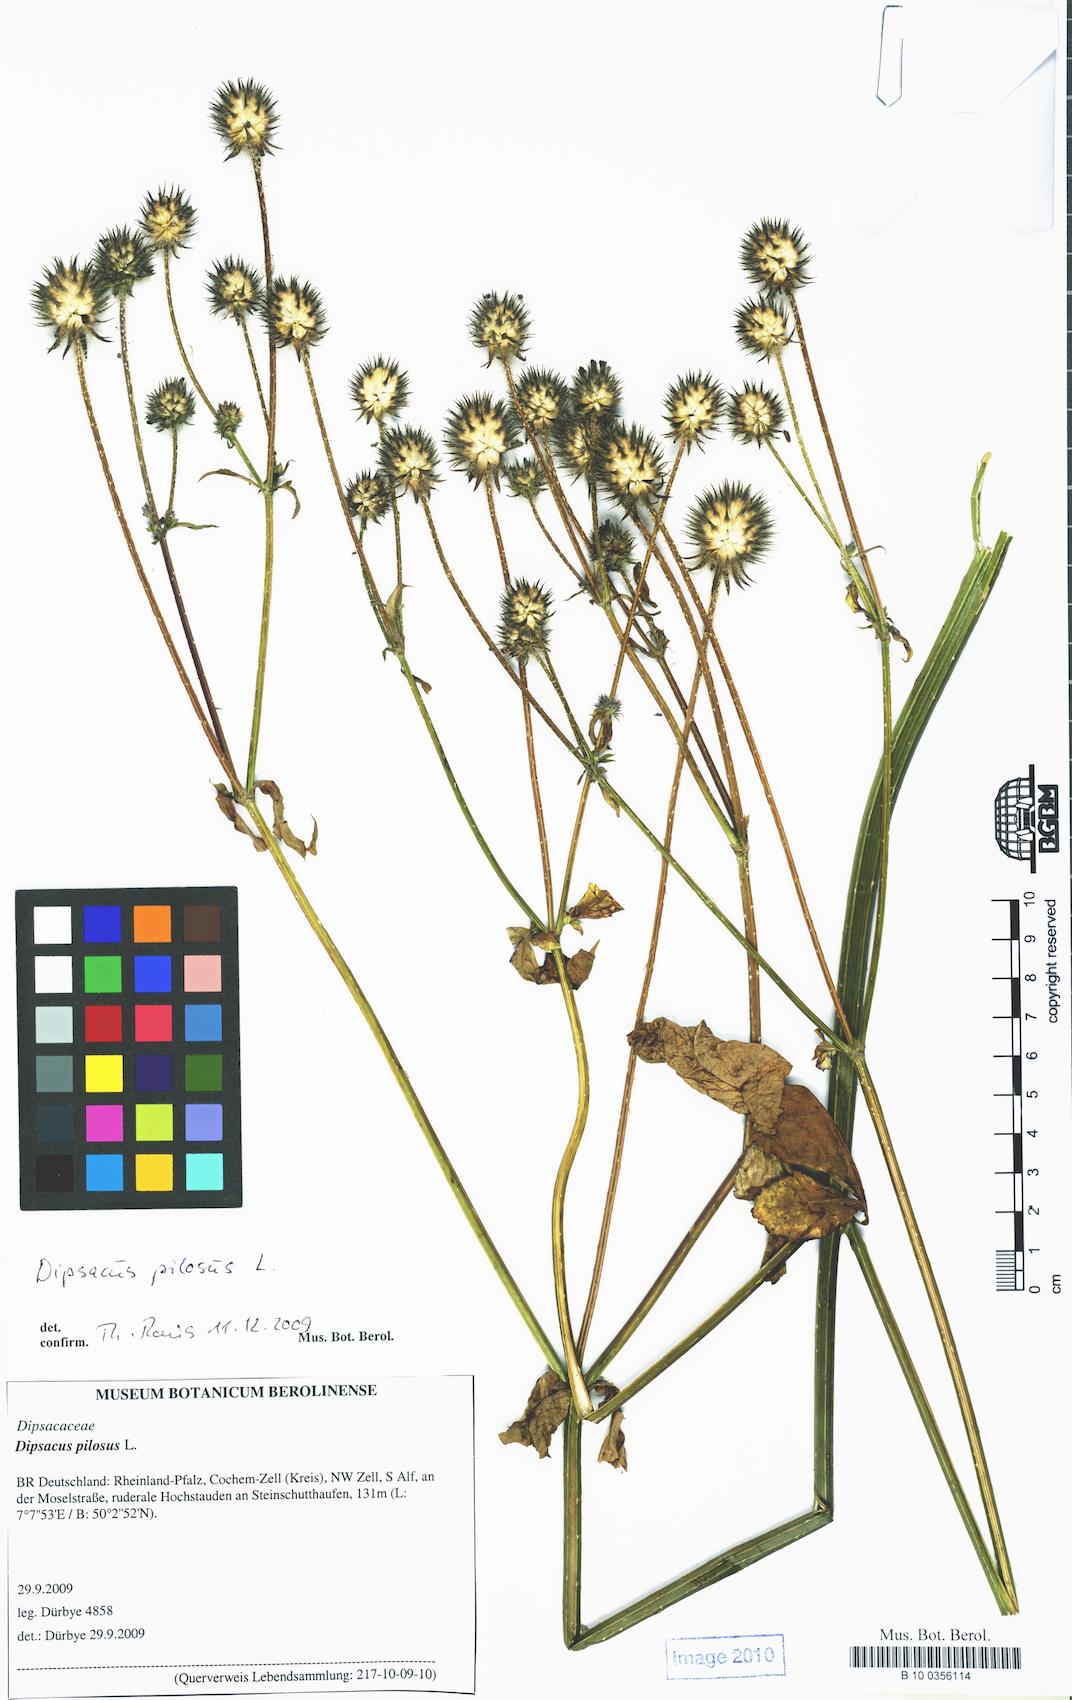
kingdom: Plantae
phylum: Tracheophyta
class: Magnoliopsida
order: Dipsacales
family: Caprifoliaceae
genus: Dipsacus
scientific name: Dipsacus pilosus
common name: Small teasel
